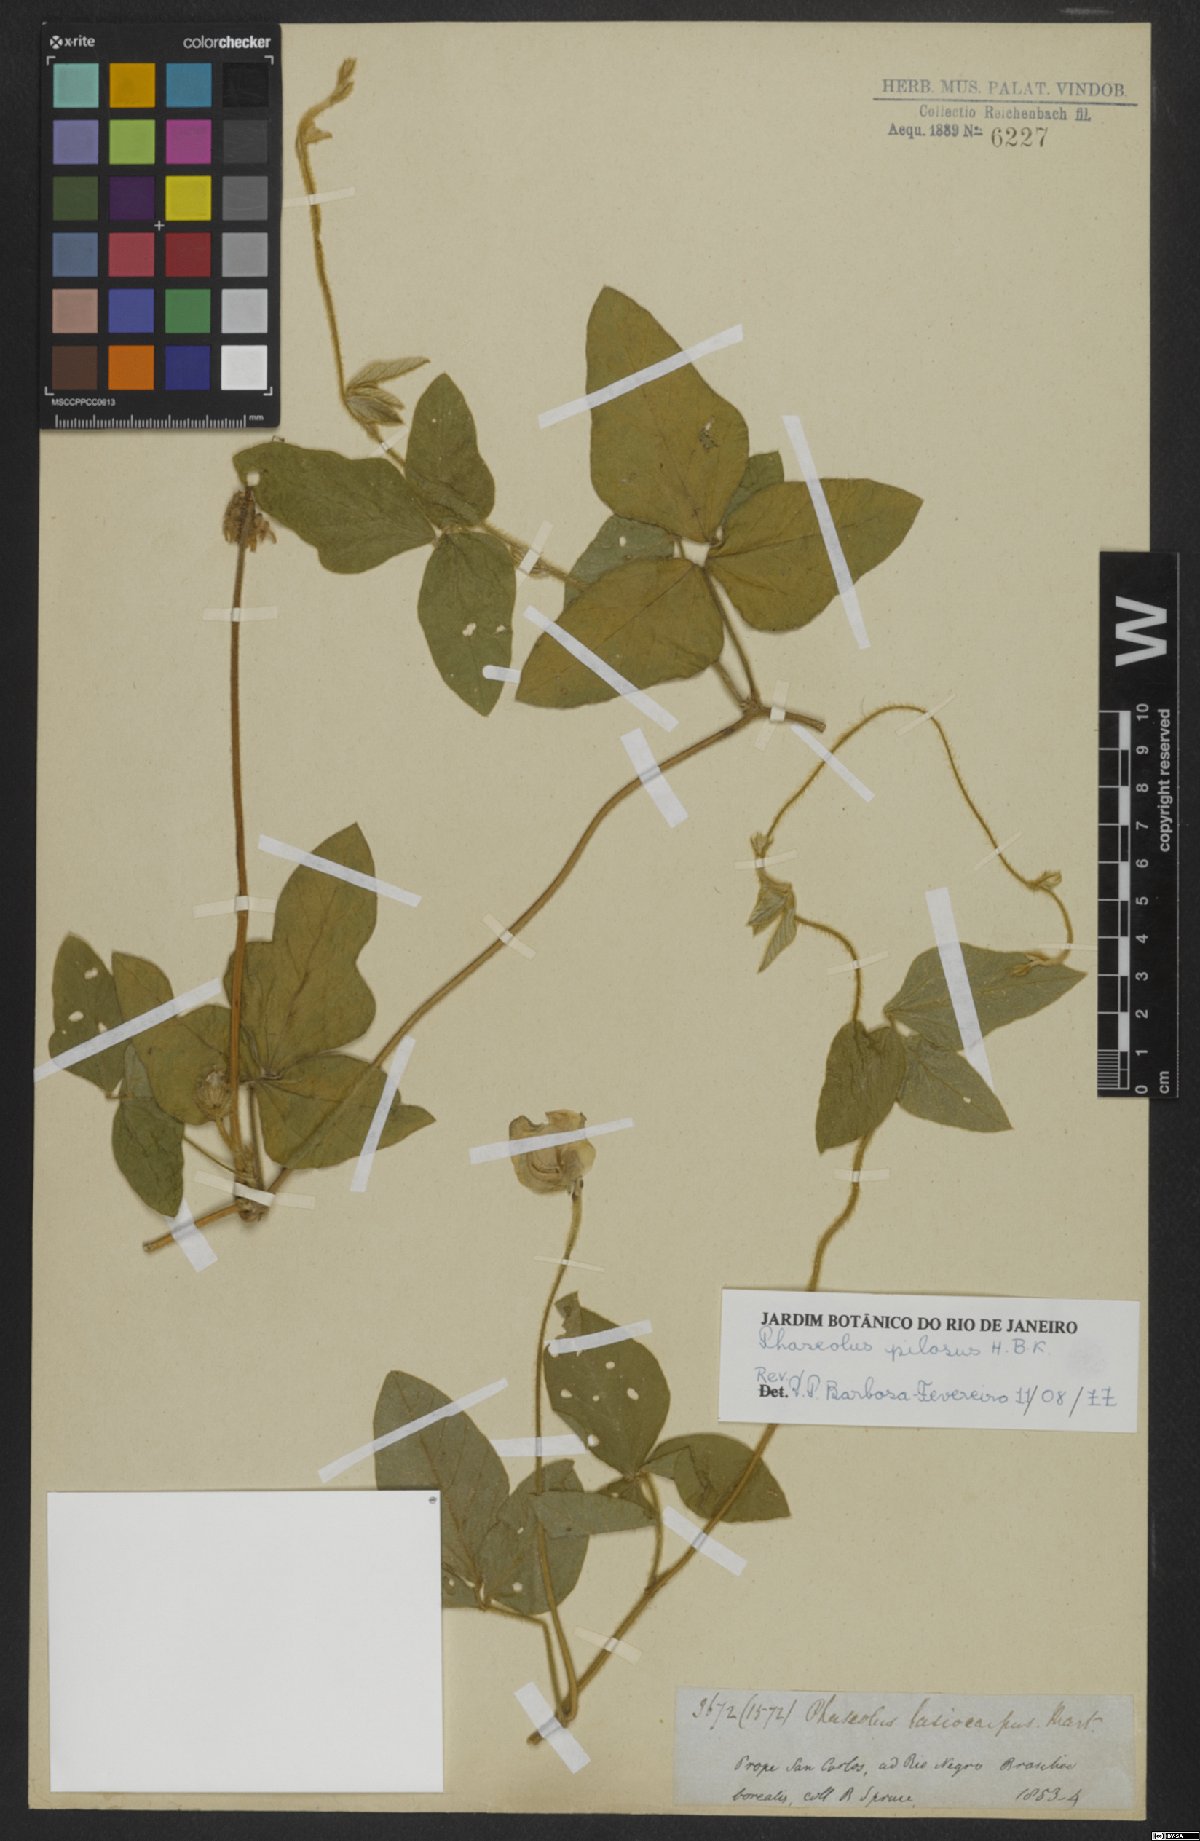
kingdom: Plantae
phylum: Tracheophyta
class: Magnoliopsida
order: Fabales
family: Fabaceae
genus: Vigna
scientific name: Vigna lasiocarpa
